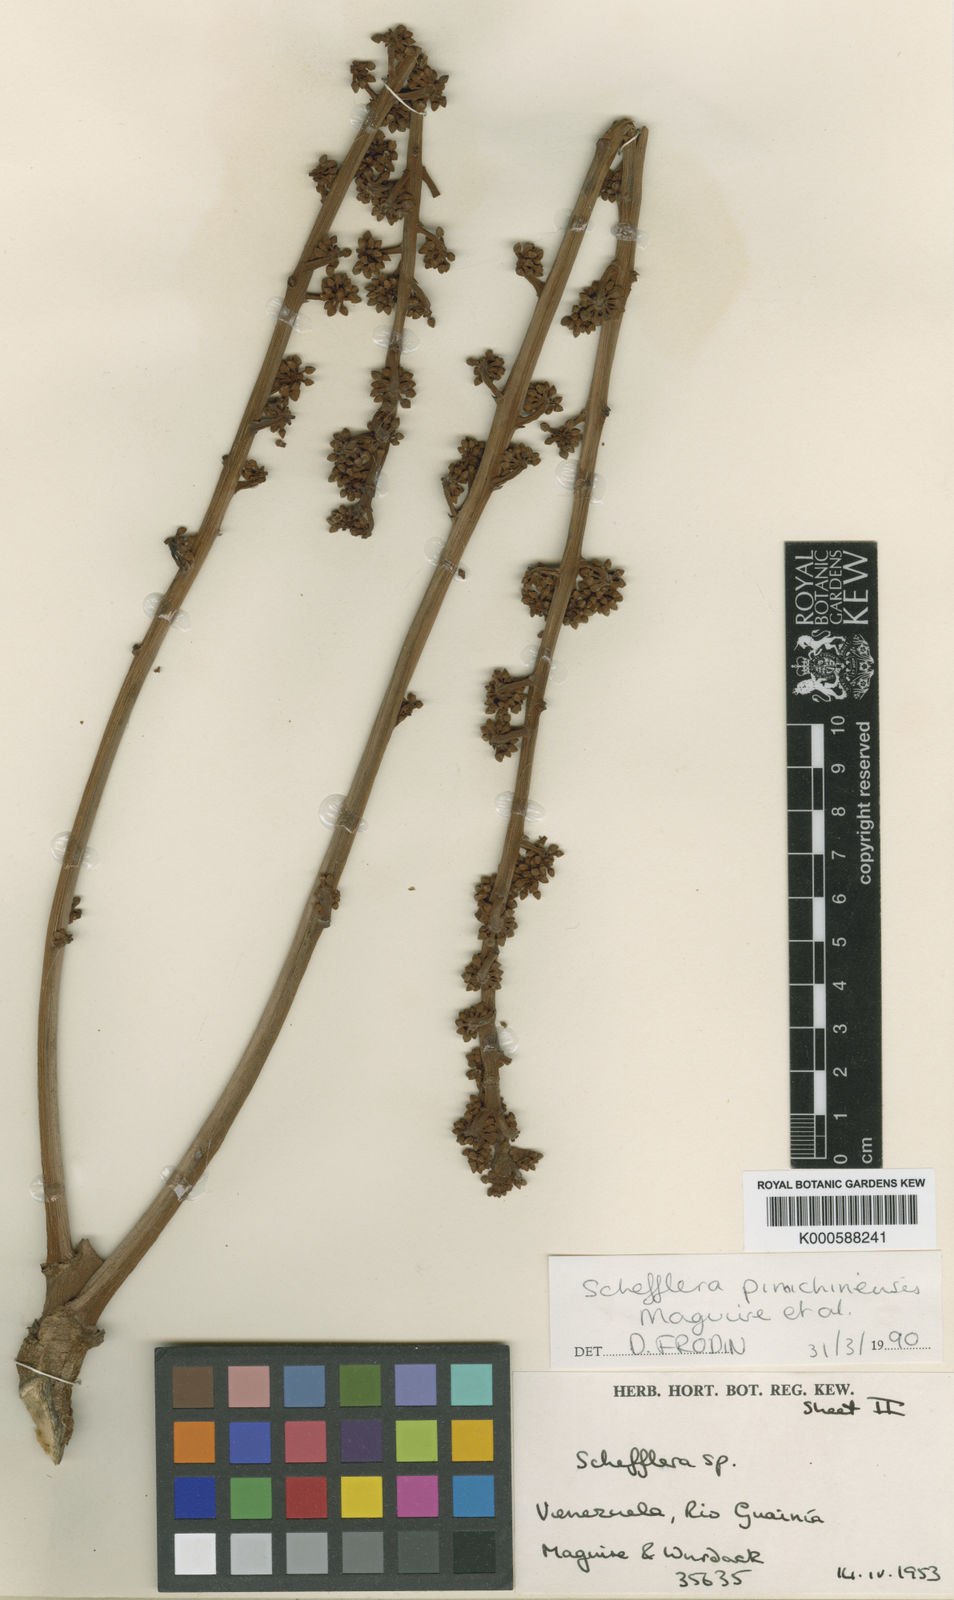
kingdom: Plantae
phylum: Tracheophyta
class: Magnoliopsida
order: Apiales
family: Araliaceae
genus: Didymopanax
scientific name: Didymopanax pimichinensis
